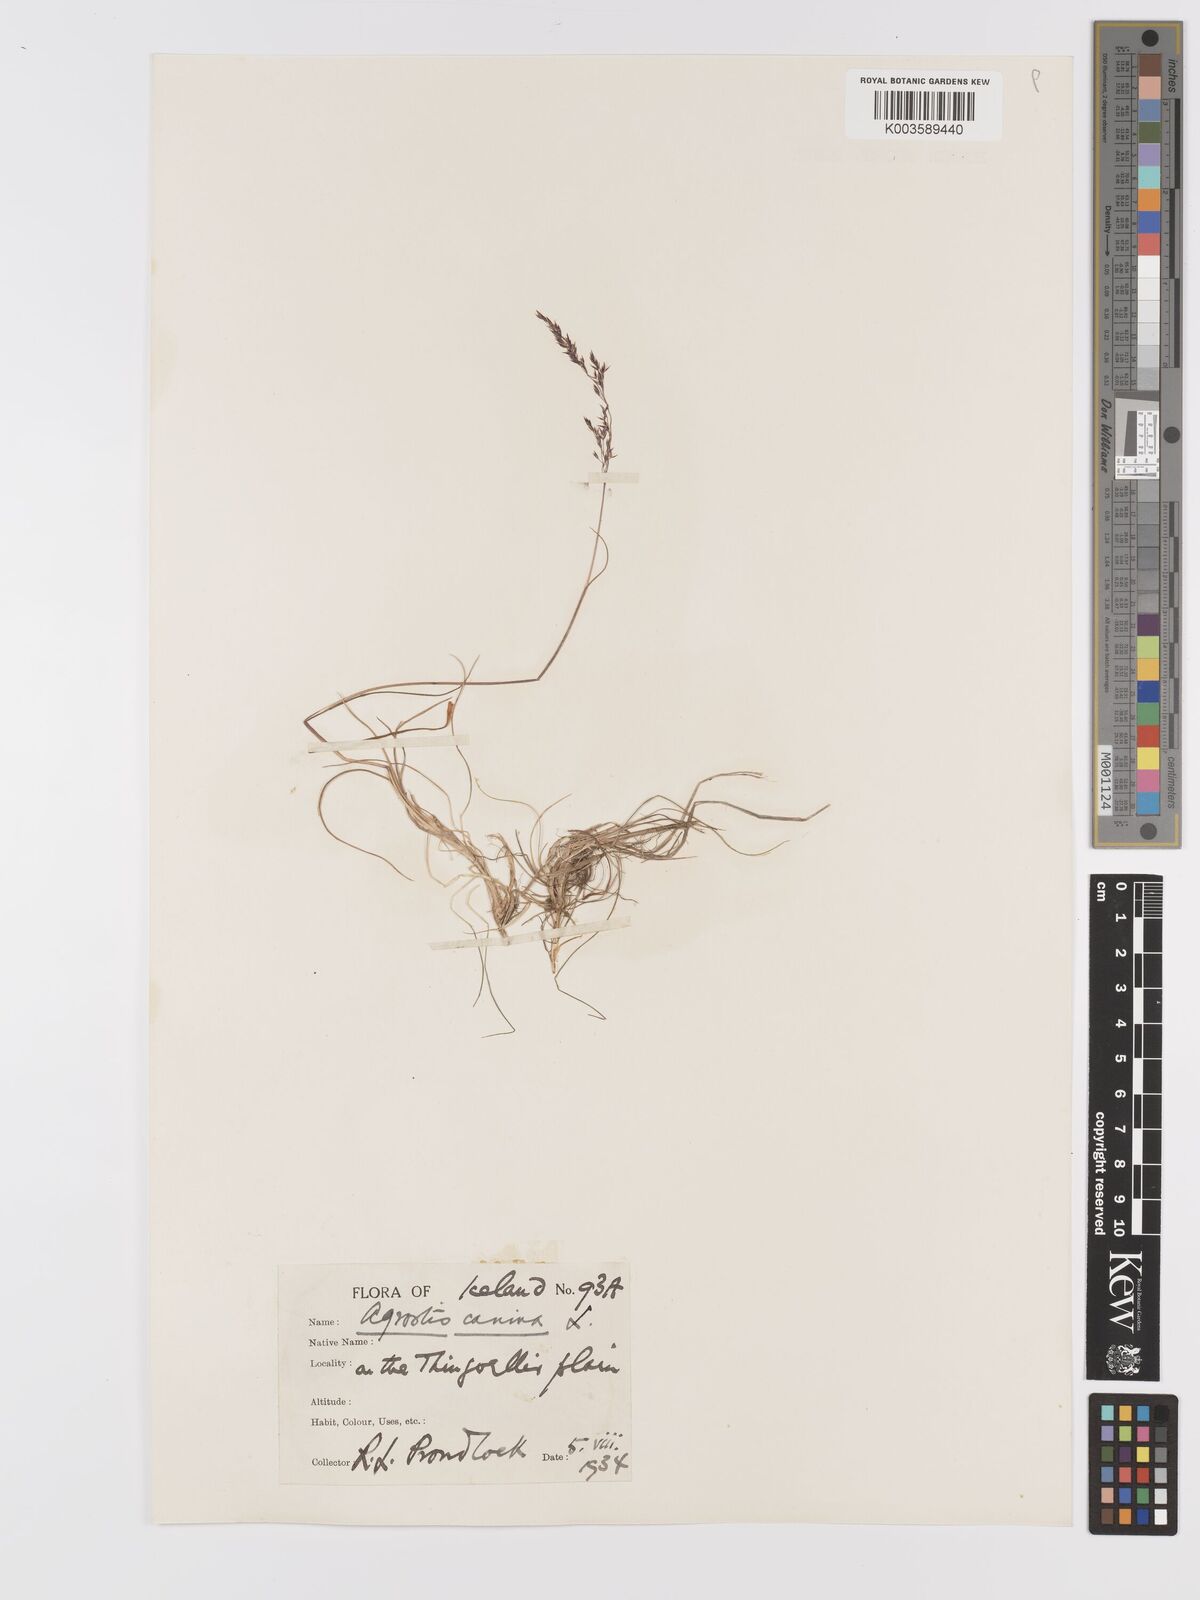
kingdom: Plantae
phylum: Tracheophyta
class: Liliopsida
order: Poales
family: Poaceae
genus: Agrostis
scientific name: Agrostis canina
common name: Velvet bent
